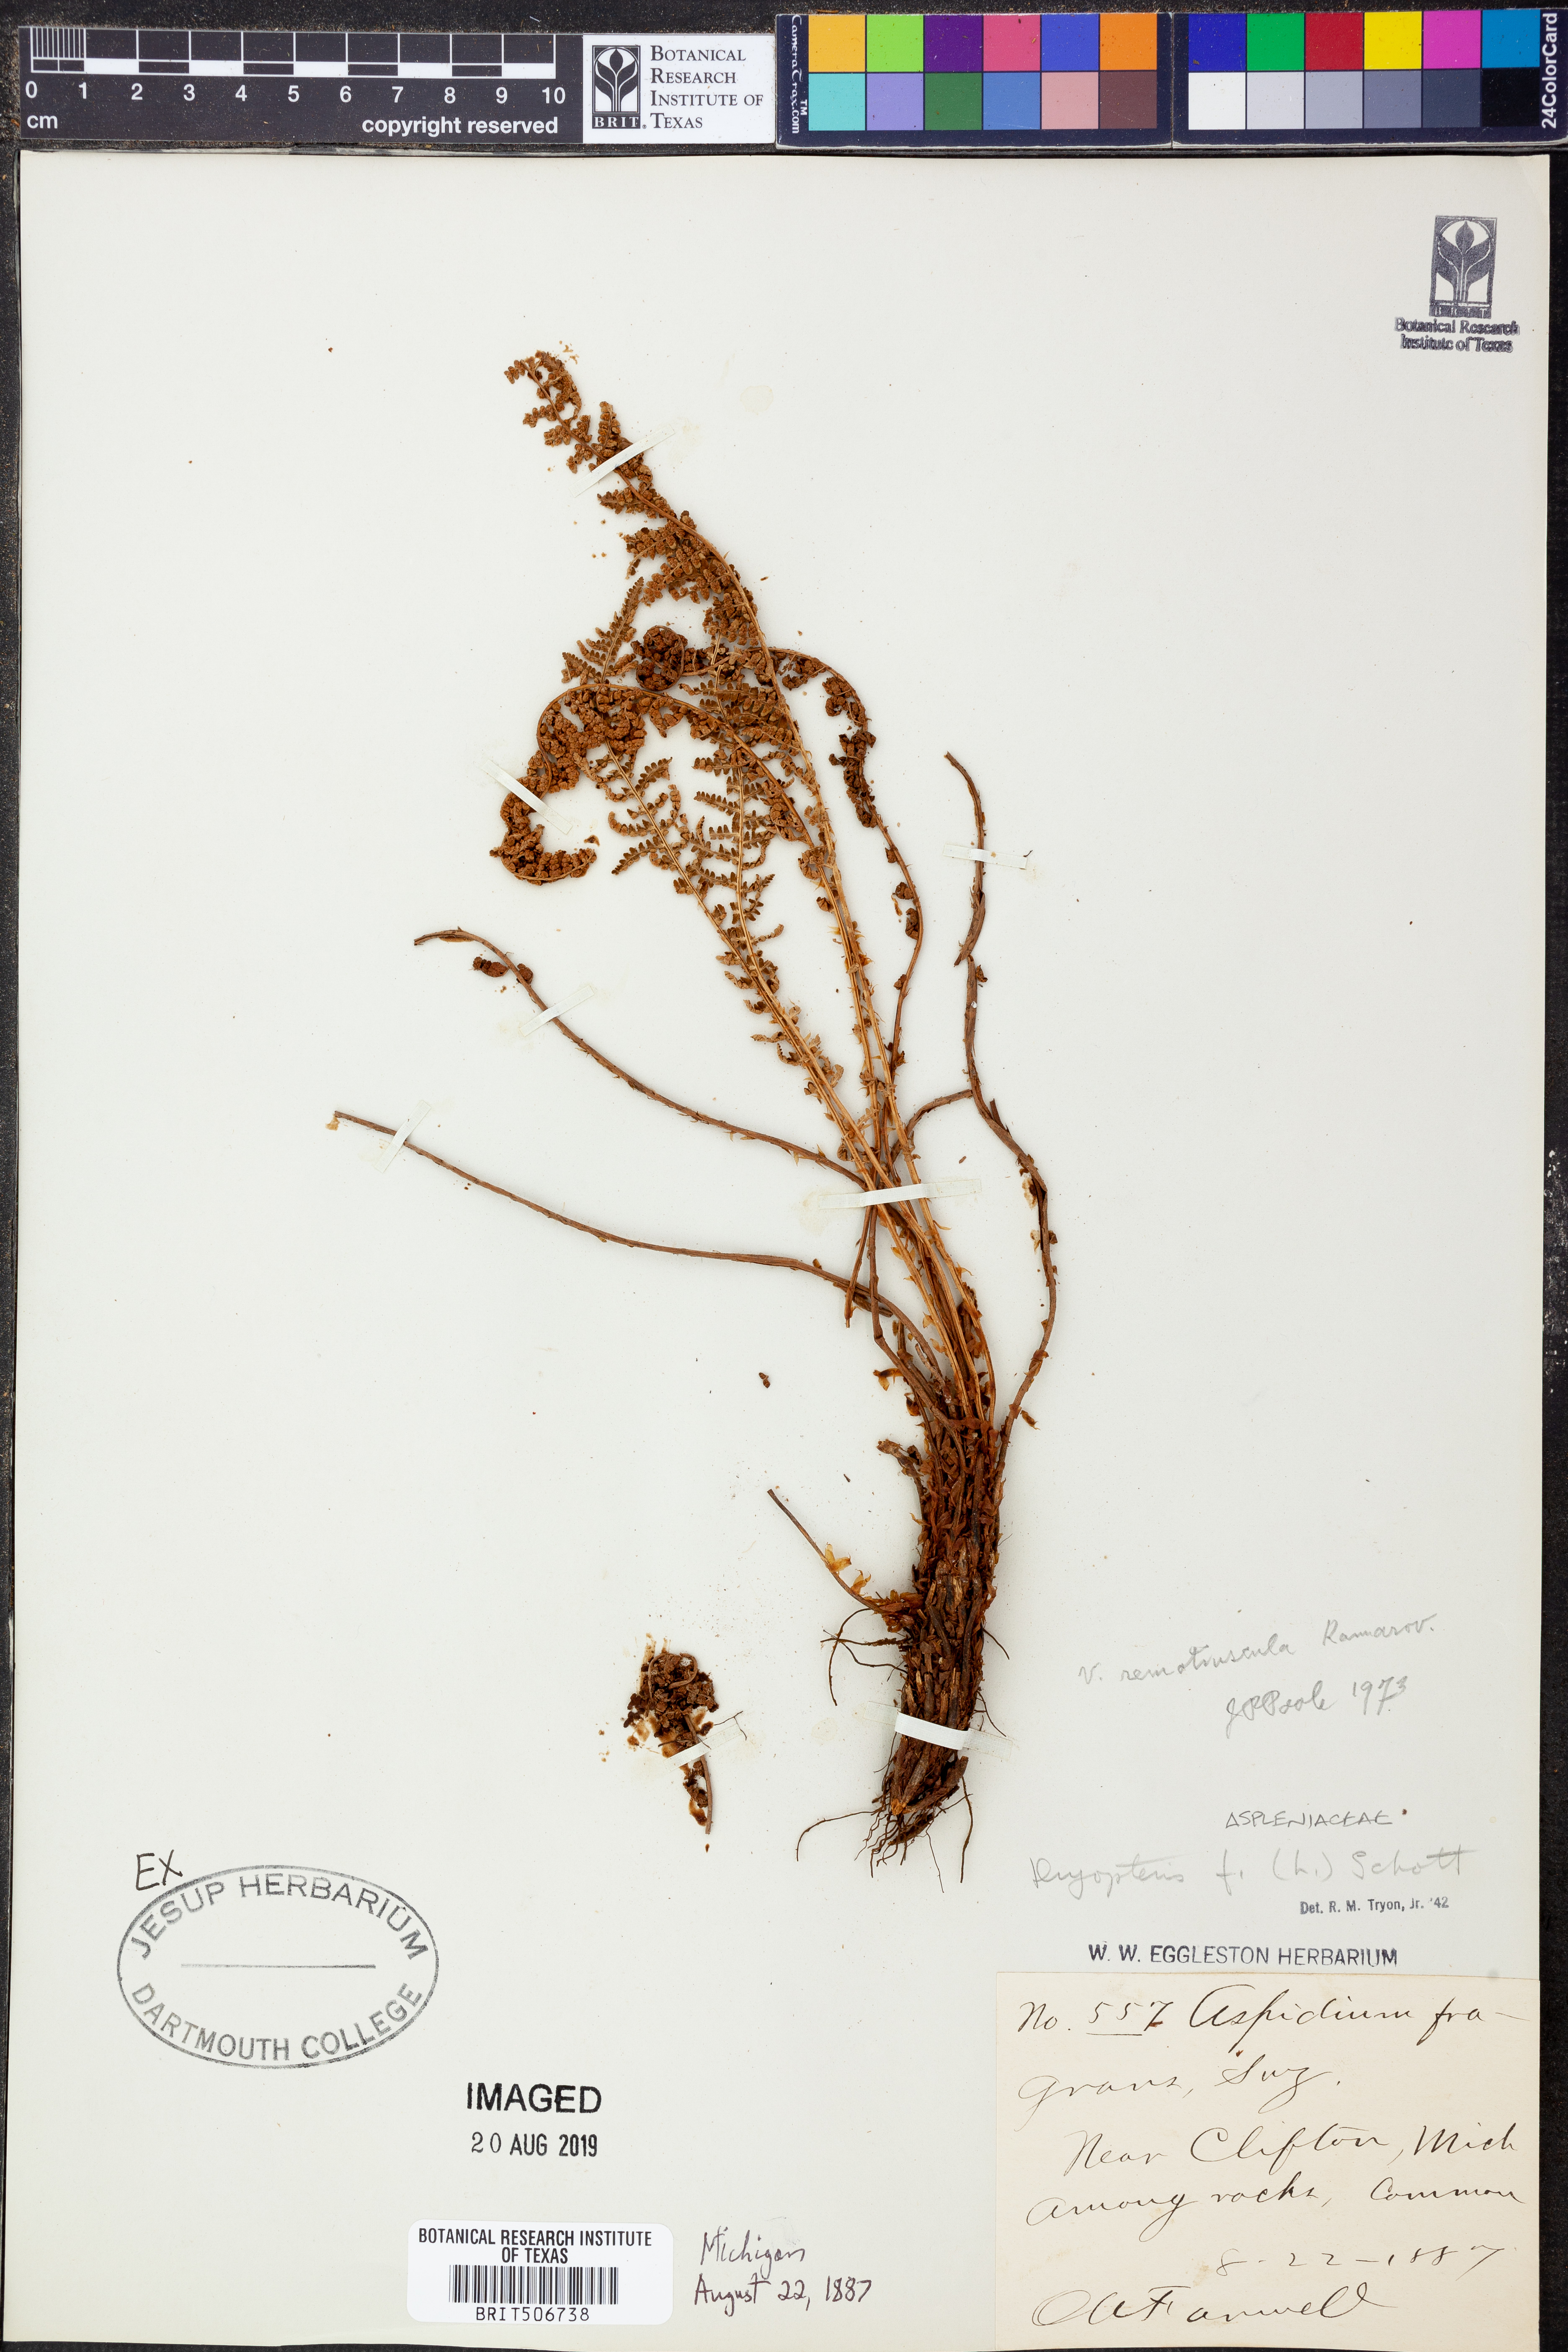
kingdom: Plantae
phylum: Tracheophyta
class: Polypodiopsida
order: Polypodiales
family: Dryopteridaceae
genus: Dryopteris
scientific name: Dryopteris fragrans
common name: Fragrant wood fern
